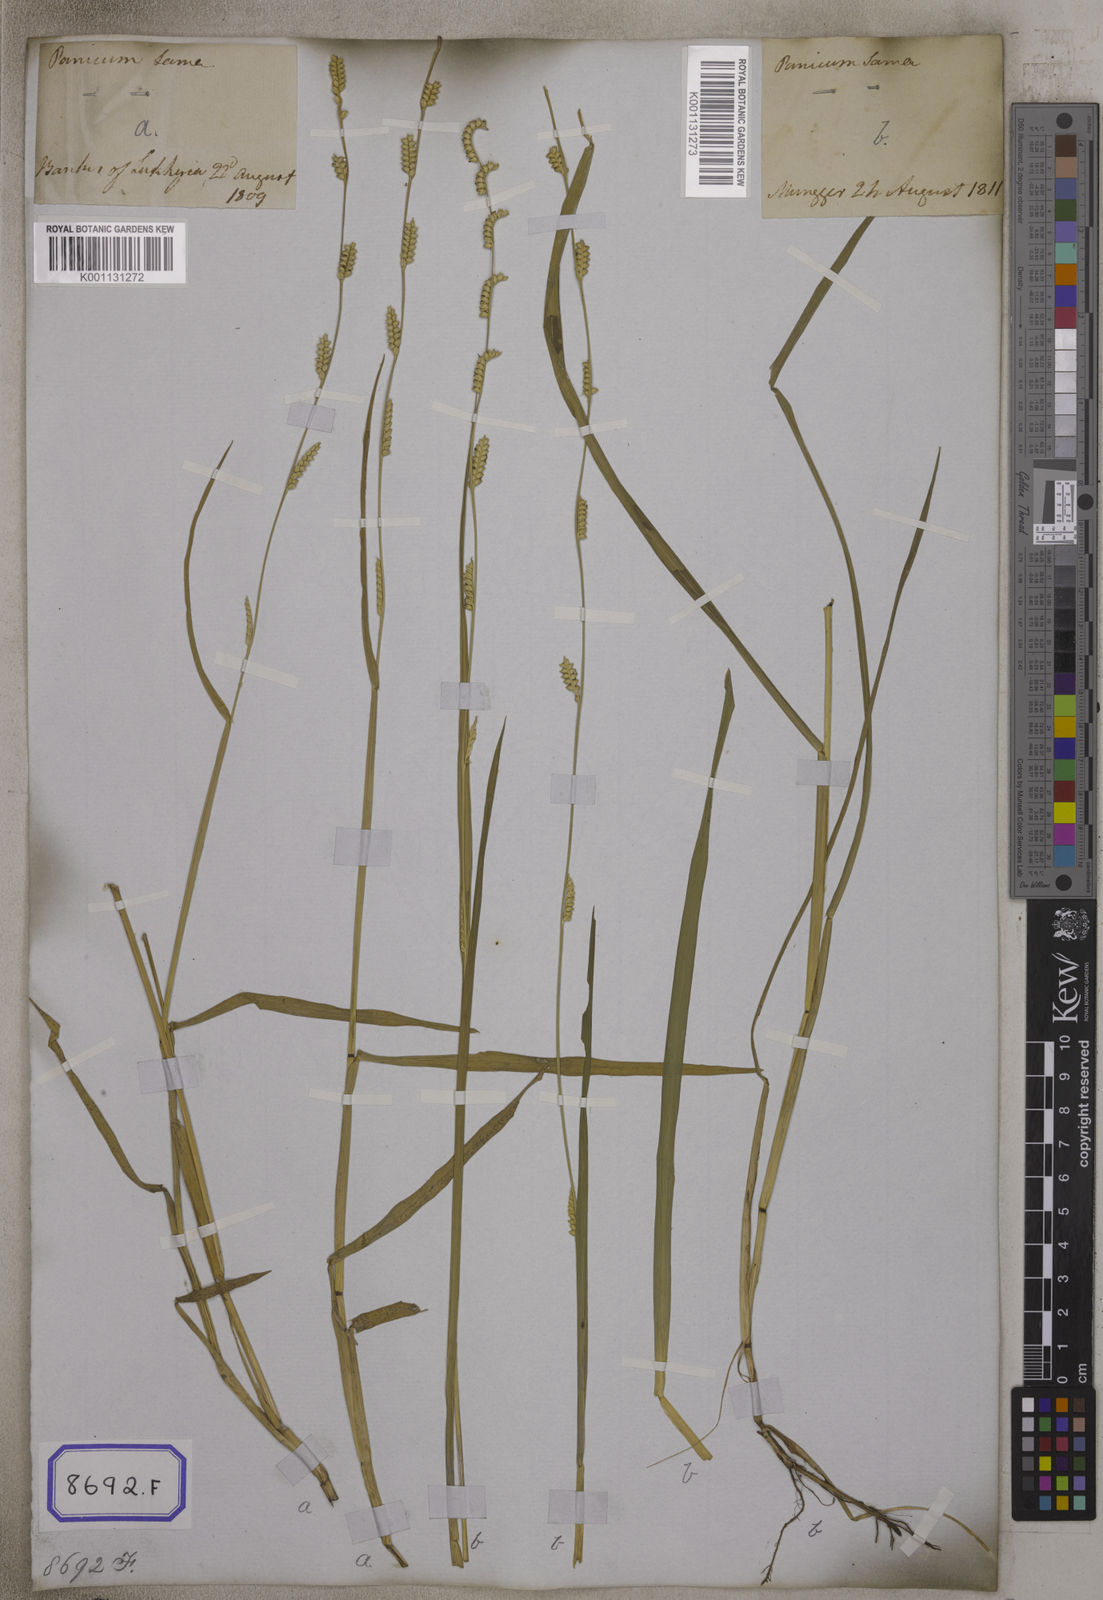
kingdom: Plantae
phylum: Tracheophyta
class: Liliopsida
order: Poales
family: Poaceae
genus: Setaria
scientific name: Setaria flavida
